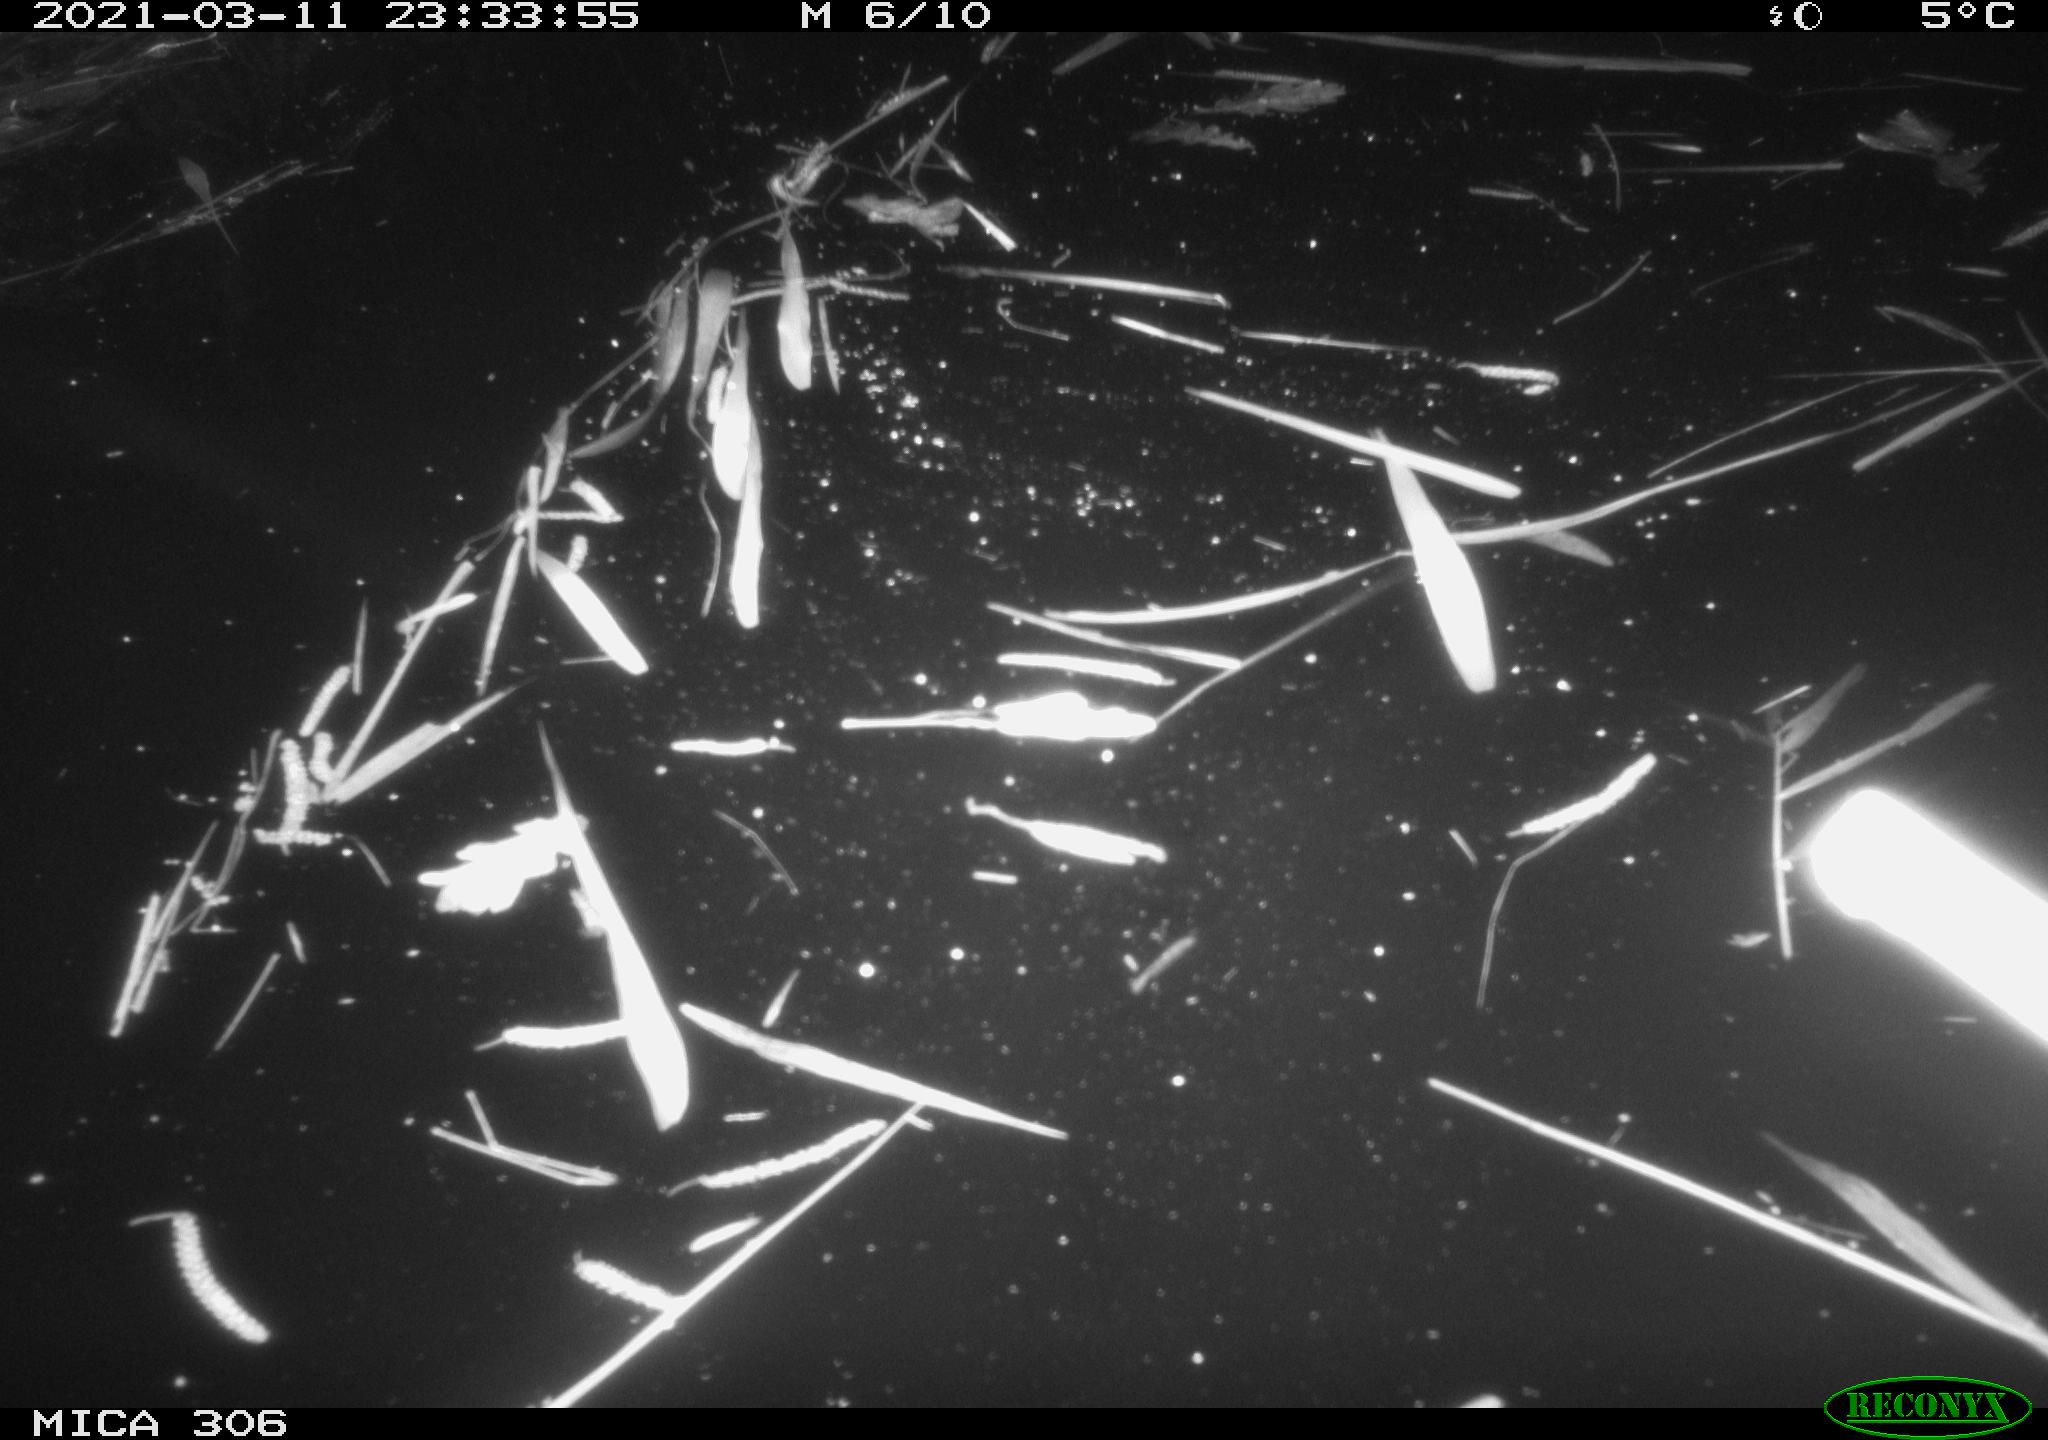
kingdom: Animalia
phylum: Chordata
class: Mammalia
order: Rodentia
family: Cricetidae
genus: Arvicola
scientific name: Arvicola amphibius
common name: European water vole
